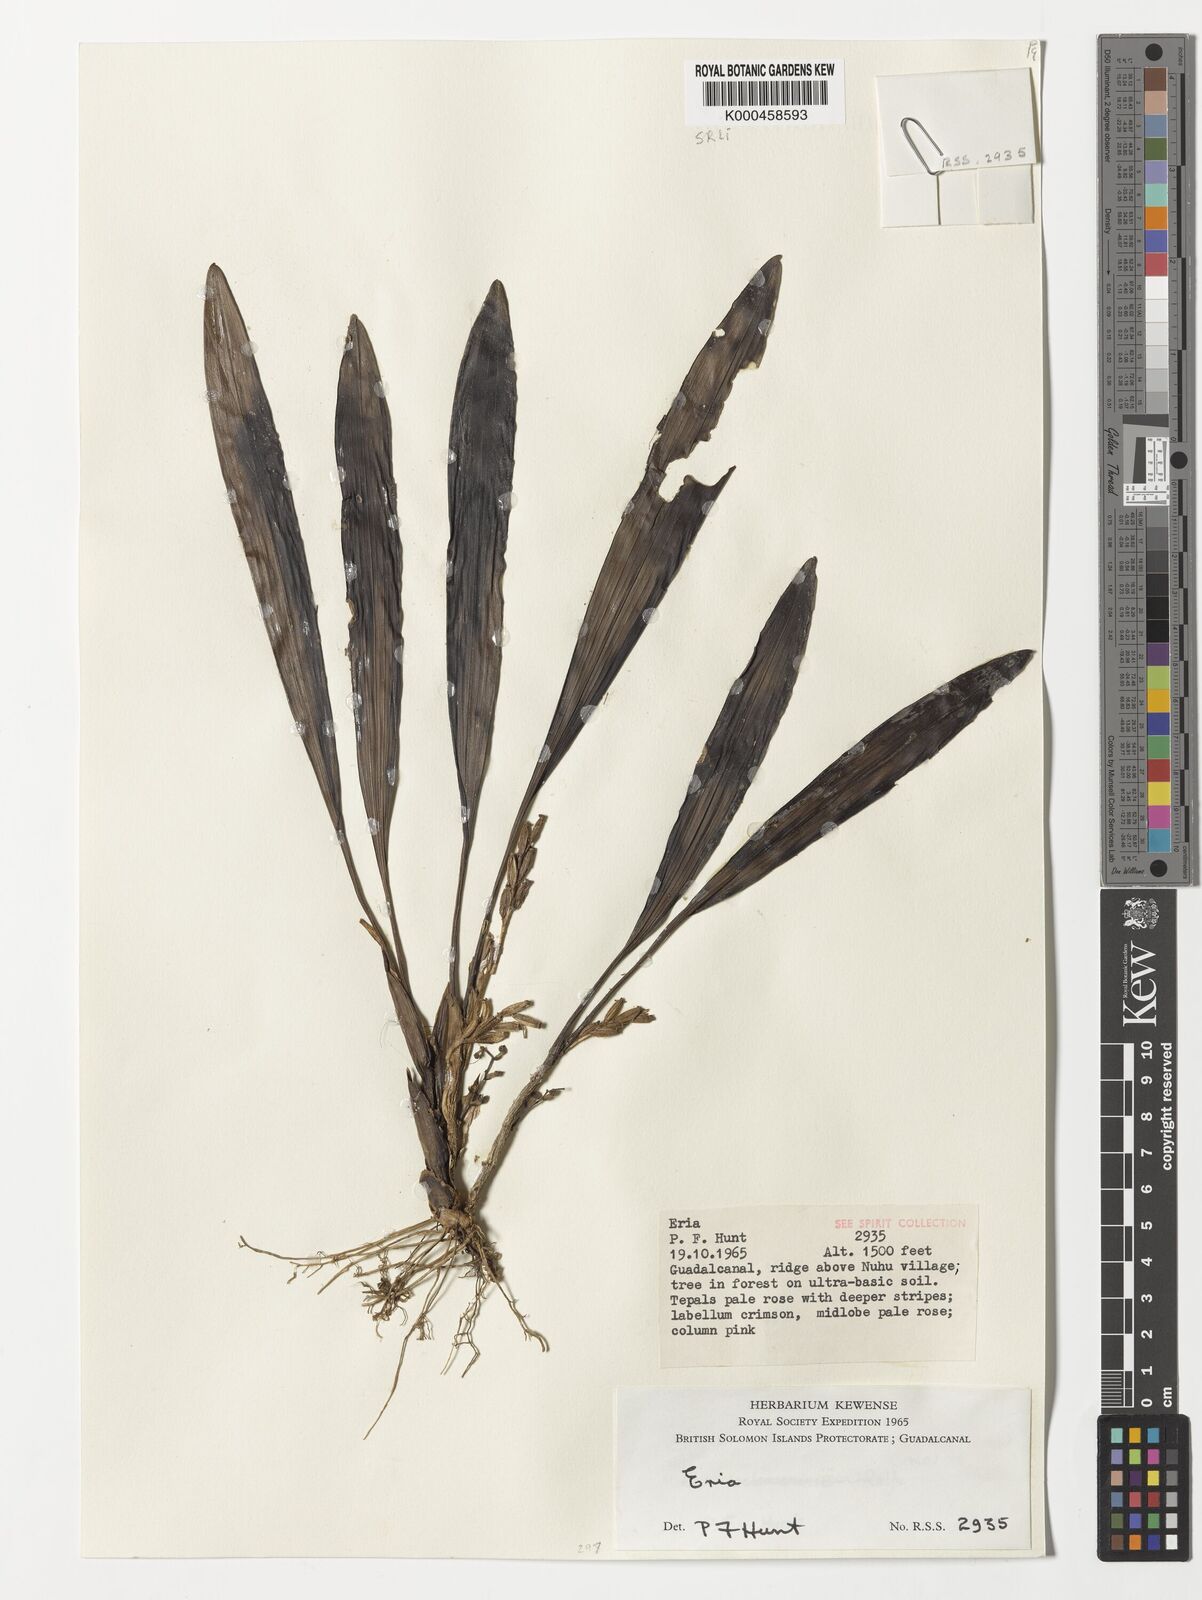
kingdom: Plantae
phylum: Tracheophyta
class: Liliopsida
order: Asparagales
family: Orchidaceae
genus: Bryobium
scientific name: Bryobium eriaeoides
